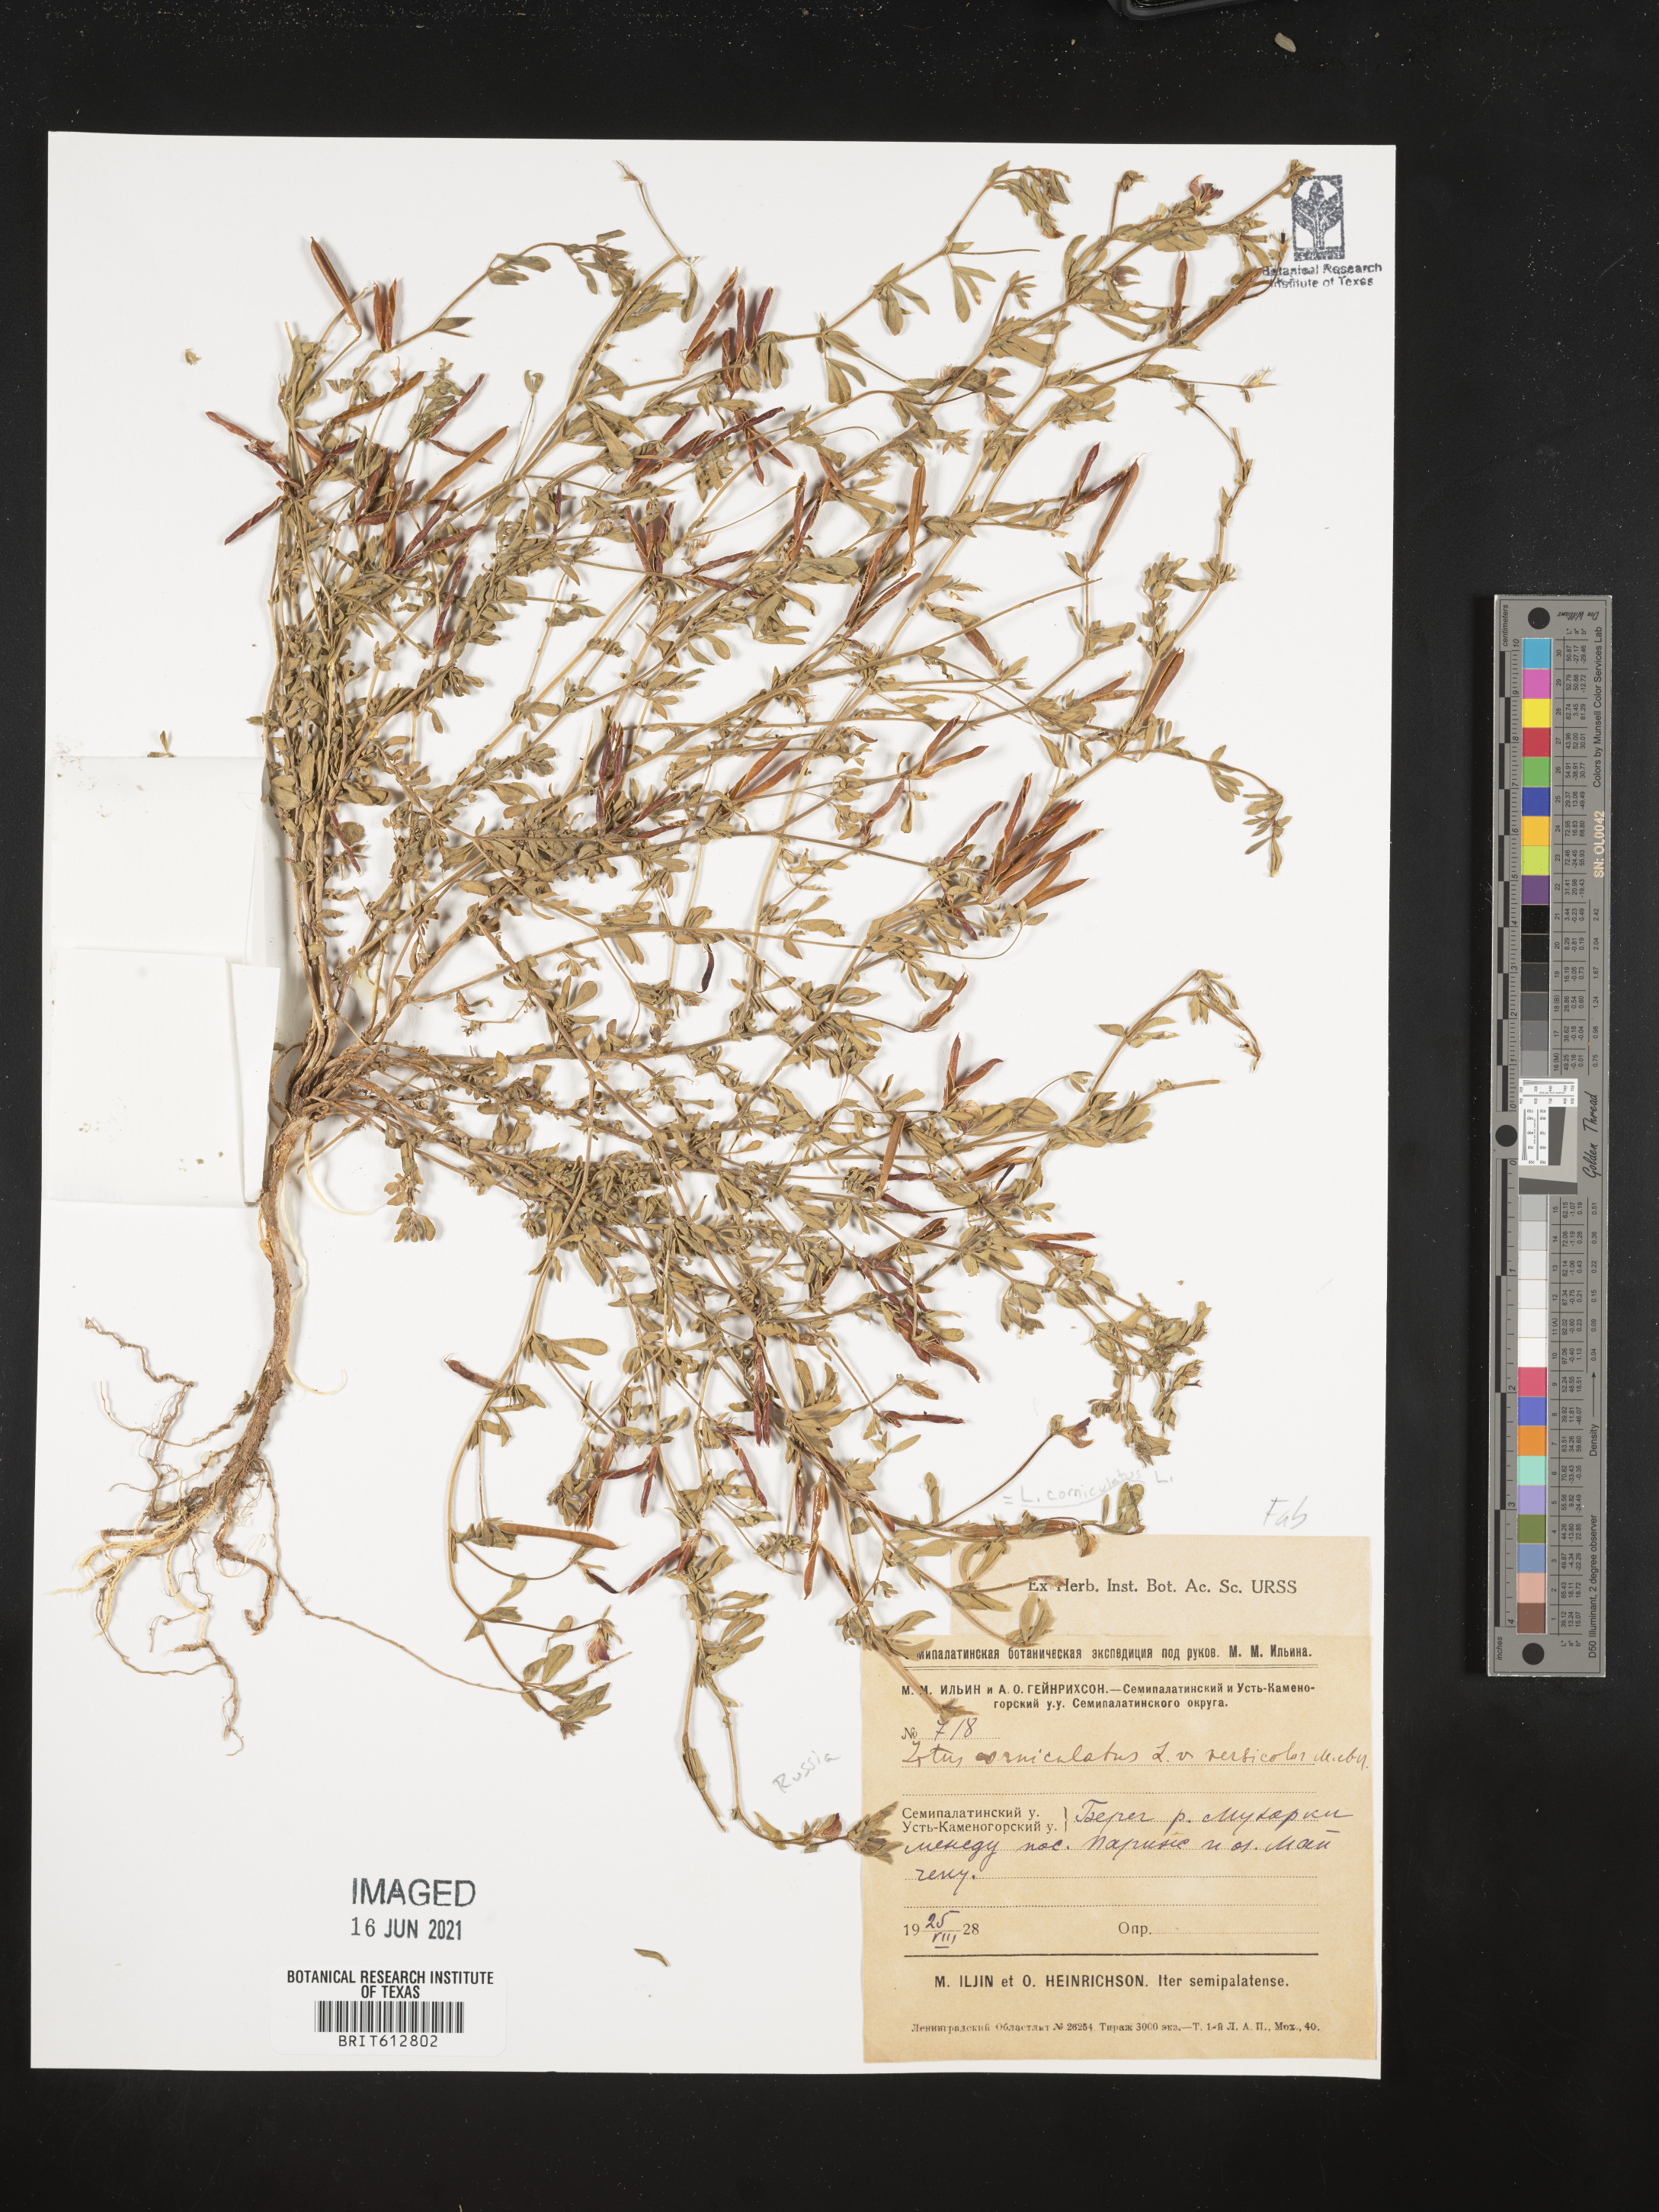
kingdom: Plantae
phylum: Tracheophyta
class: Magnoliopsida
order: Fabales
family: Fabaceae
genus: Lotus
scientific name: Lotus corniculatus
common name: Common bird's-foot-trefoil
